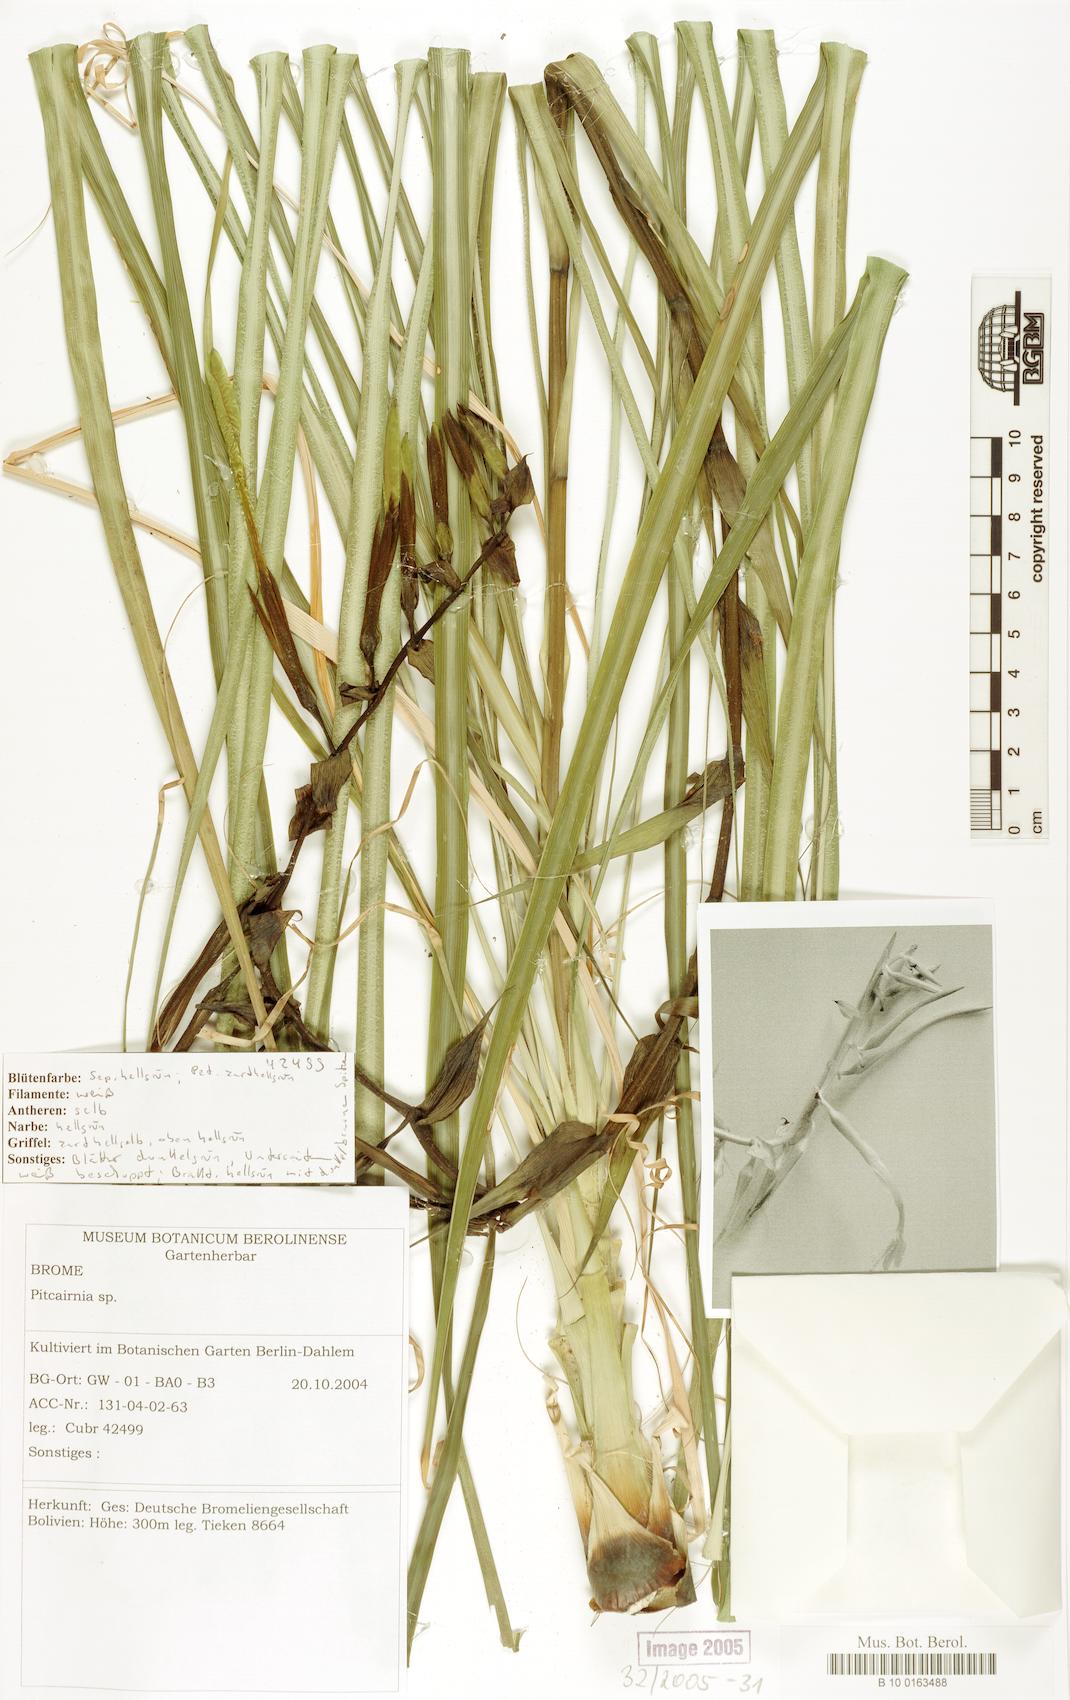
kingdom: Plantae
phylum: Tracheophyta
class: Liliopsida
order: Poales
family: Bromeliaceae
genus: Pitcairnia
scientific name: Pitcairnia
